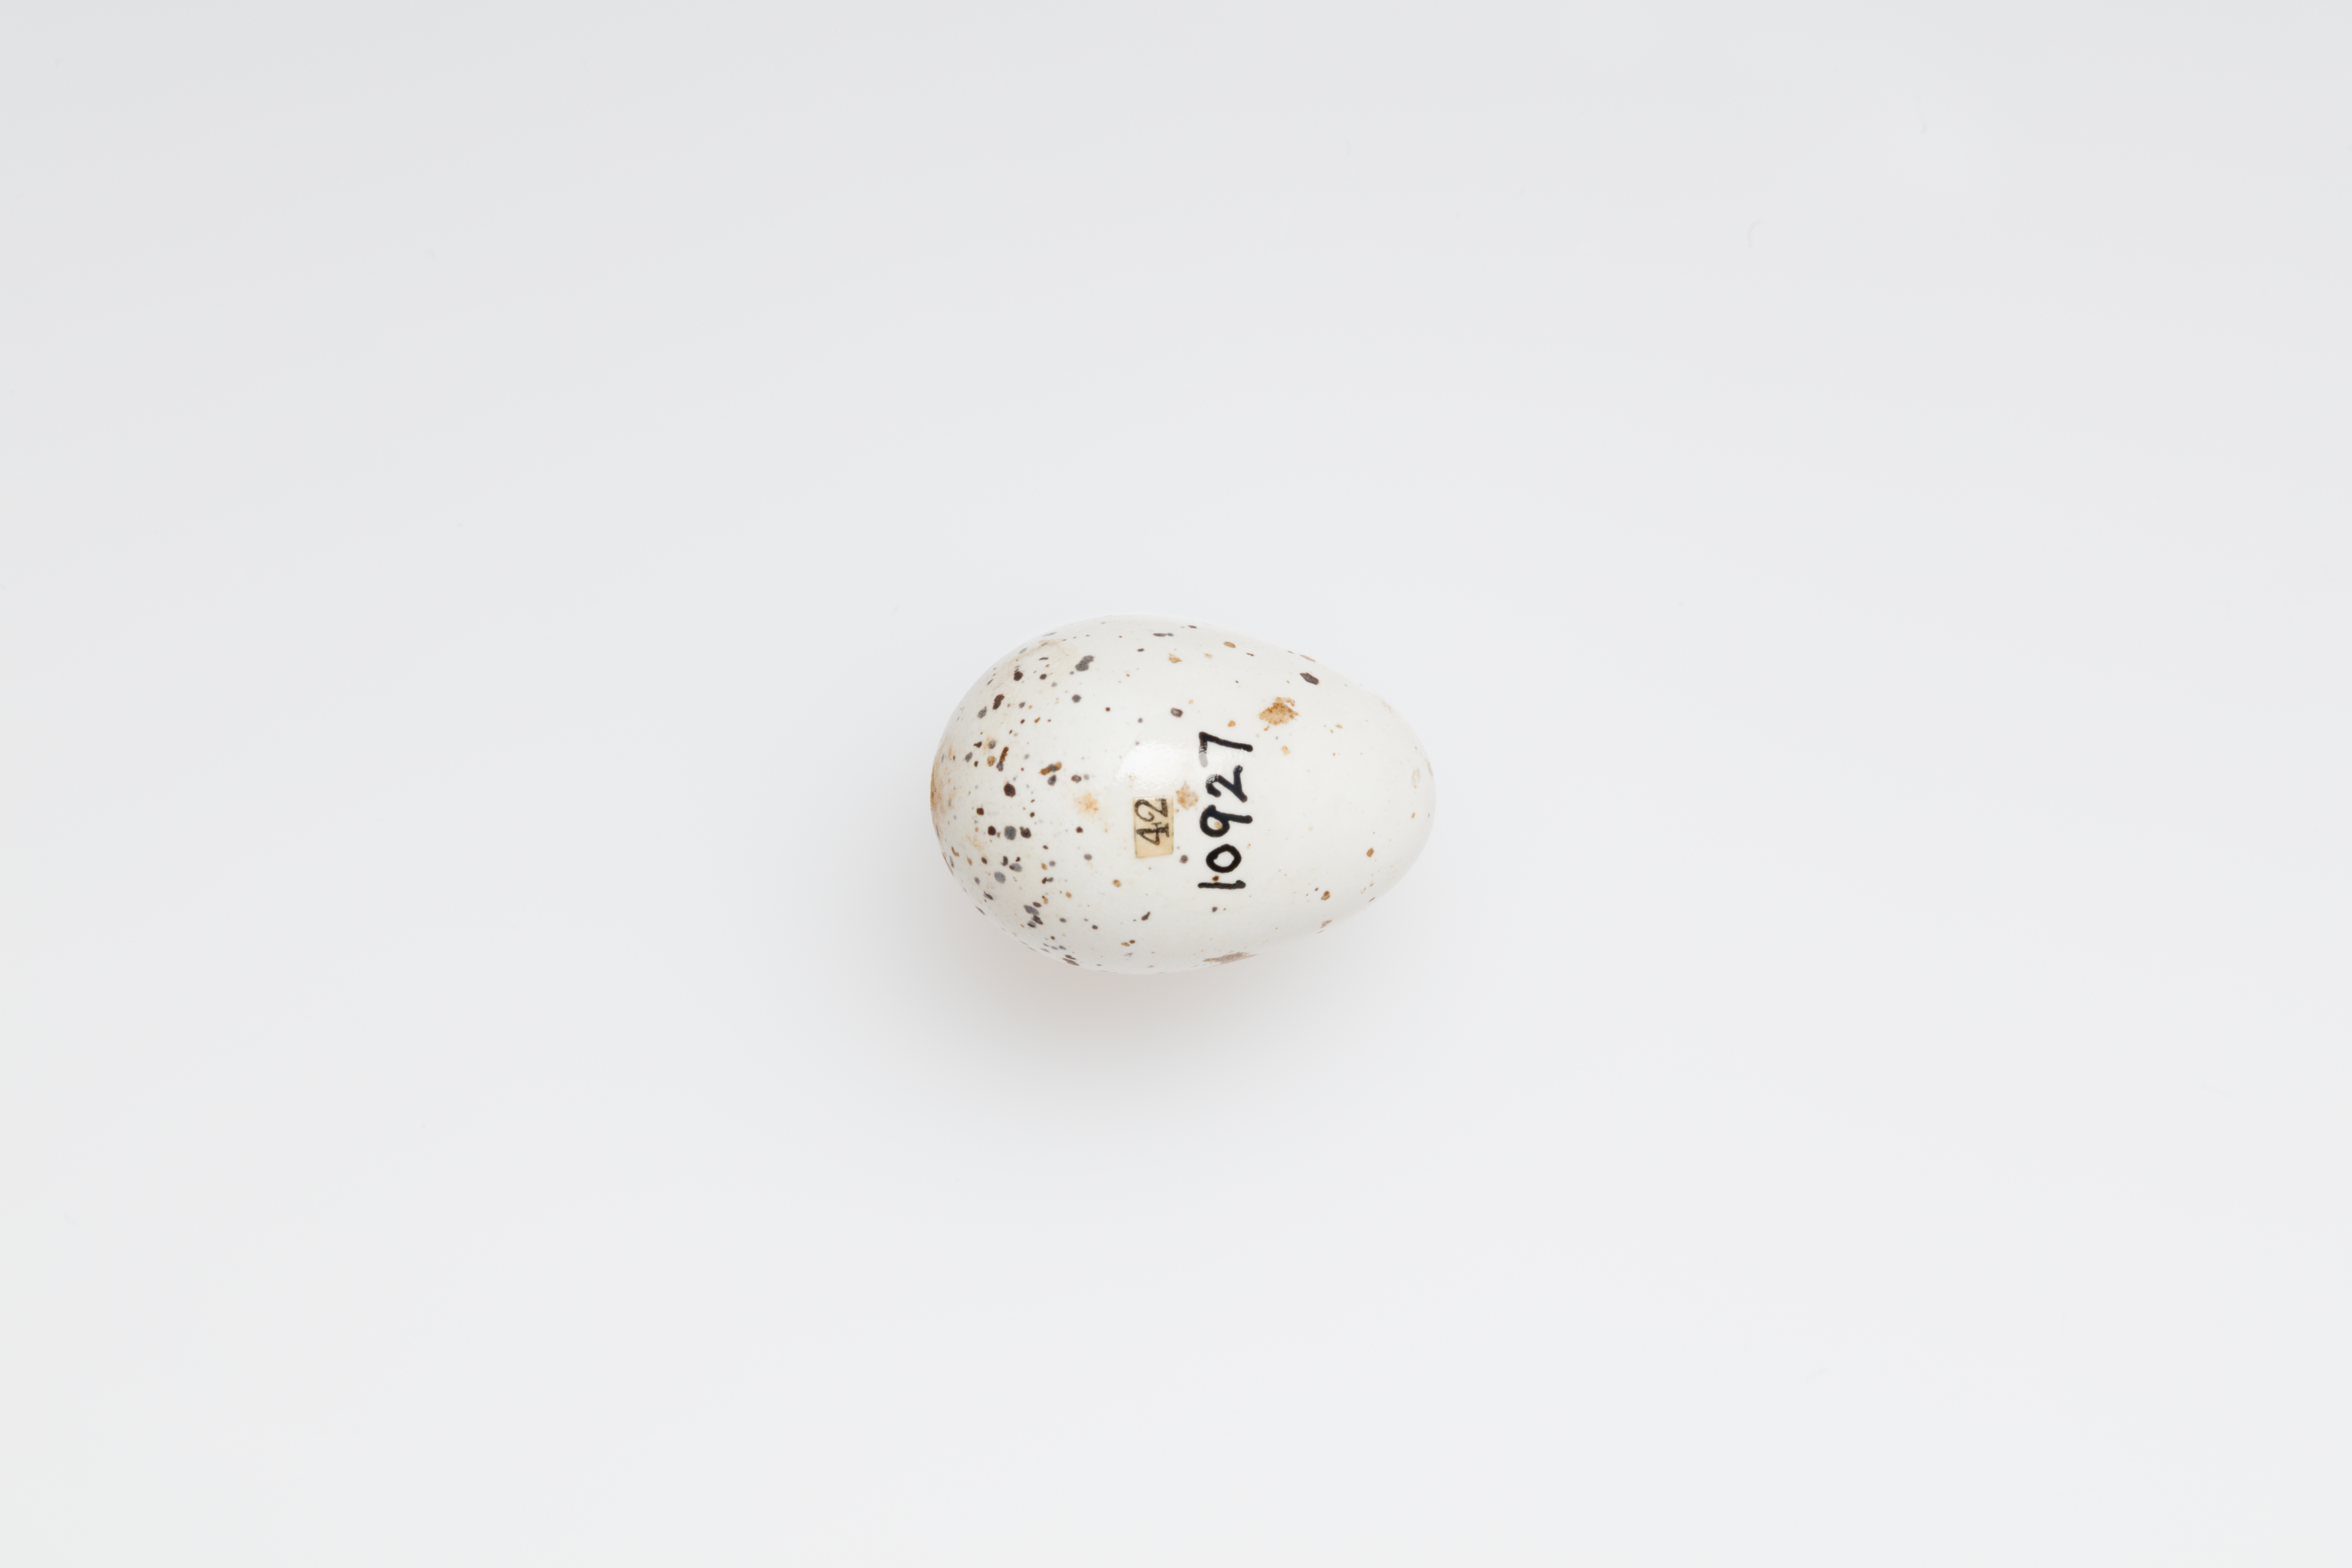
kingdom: Animalia
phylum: Chordata
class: Aves
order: Passeriformes
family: Hirundinidae
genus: Hirundo
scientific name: Hirundo rustica
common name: Barn swallow
